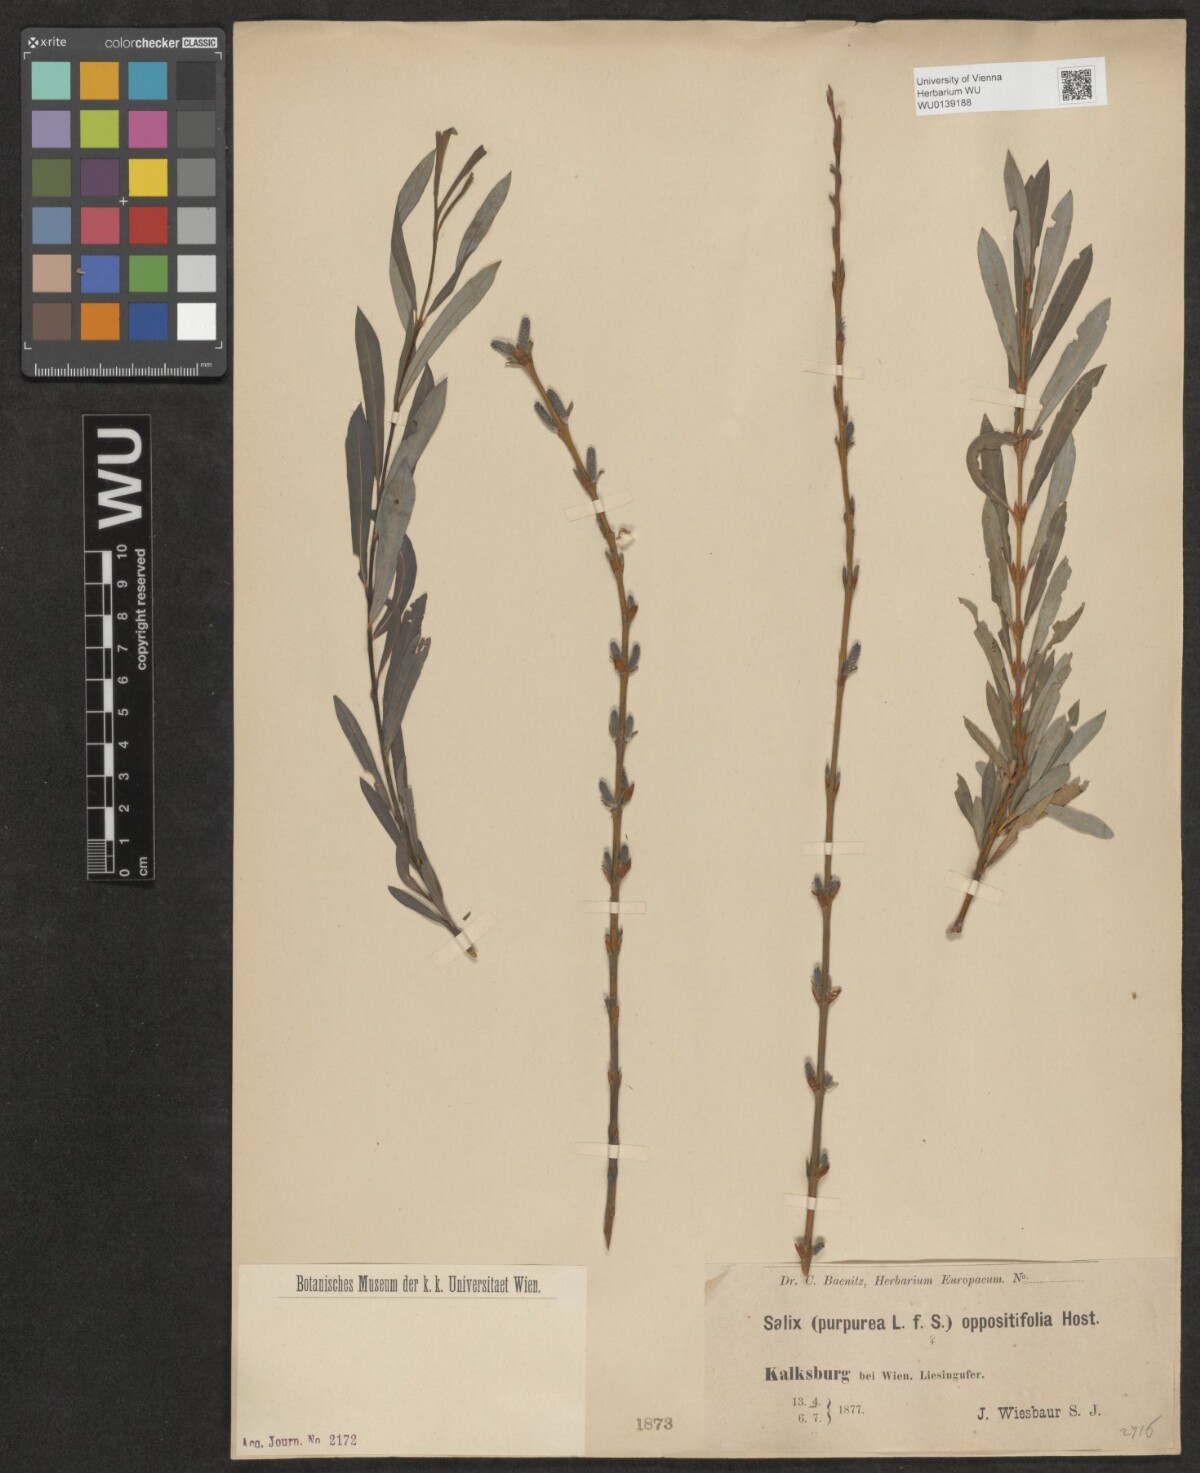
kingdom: Plantae
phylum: Tracheophyta
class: Magnoliopsida
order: Malpighiales
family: Salicaceae
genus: Salix
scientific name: Salix purpurea
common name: Purple willow
